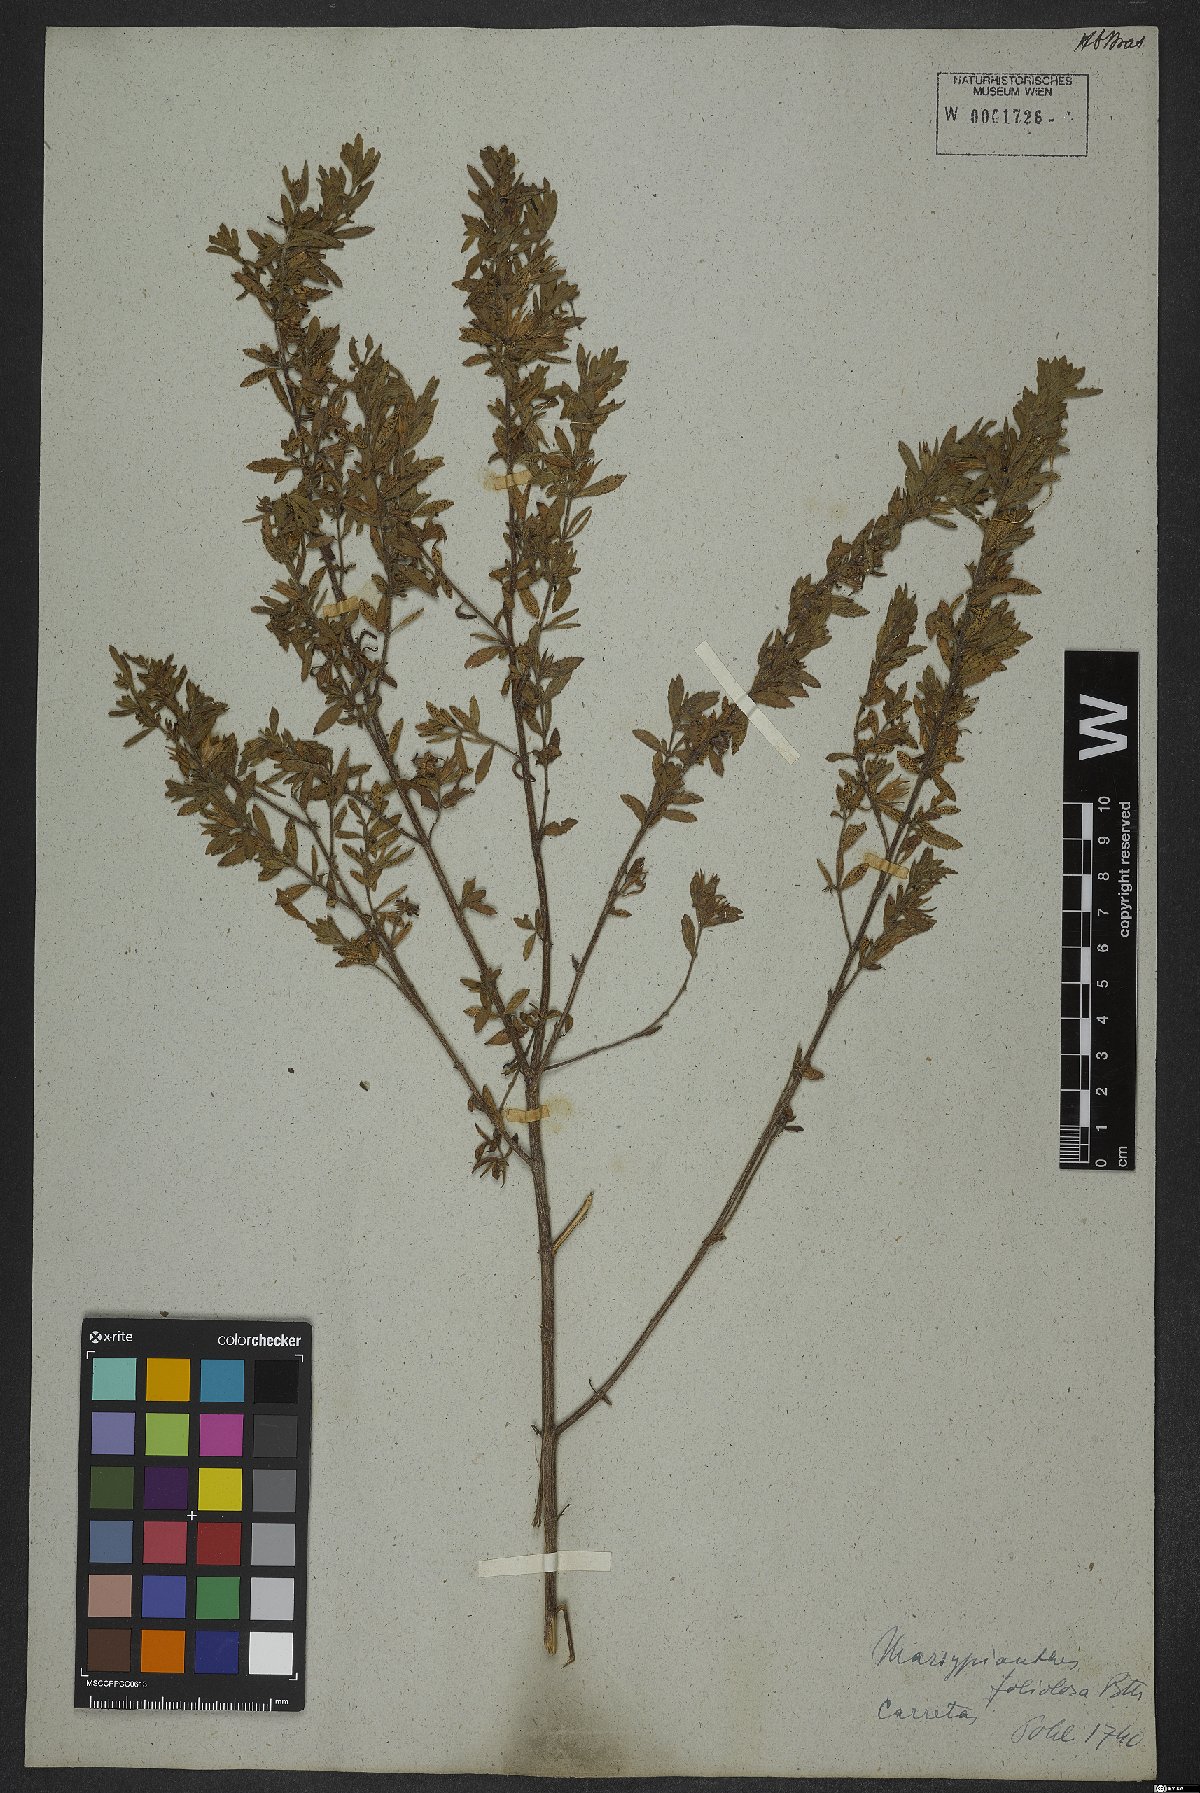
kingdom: Plantae
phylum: Tracheophyta
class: Magnoliopsida
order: Lamiales
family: Lamiaceae
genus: Marsypianthes
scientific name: Marsypianthes foliolosa
